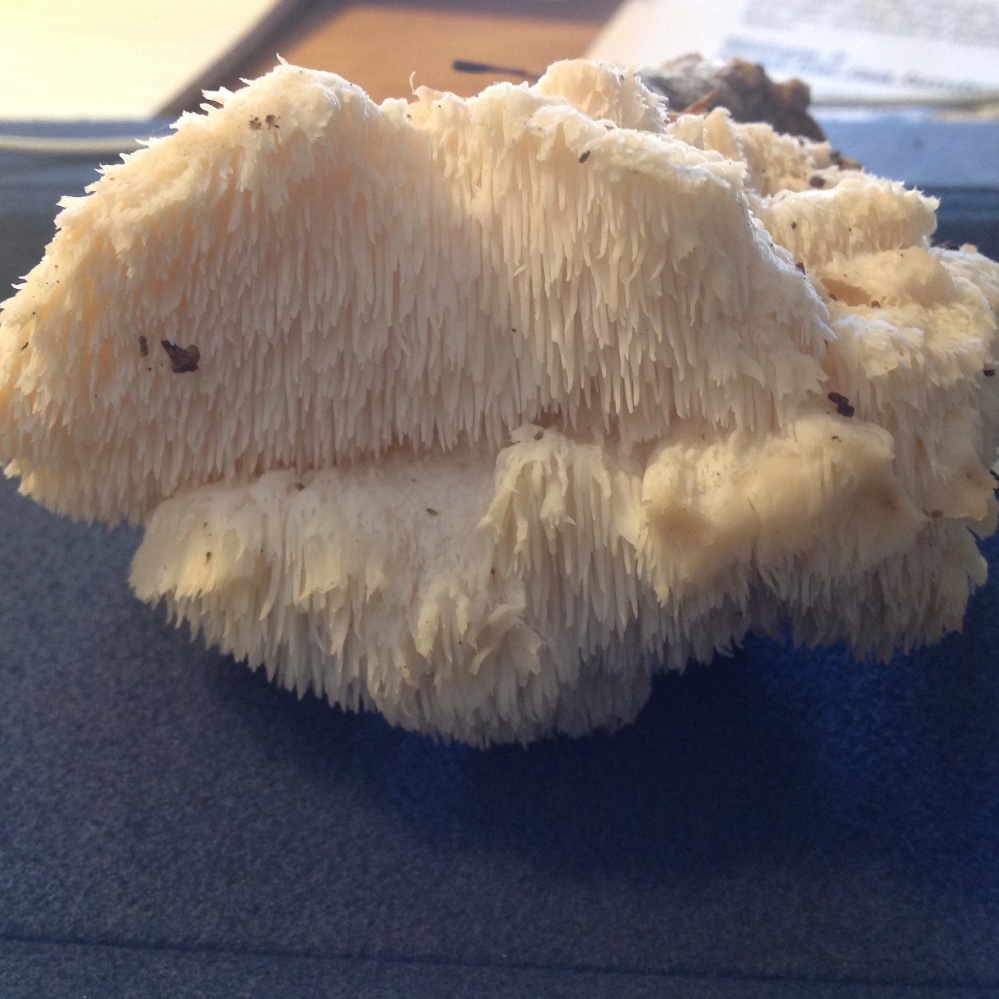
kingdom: Fungi
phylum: Basidiomycota
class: Agaricomycetes
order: Russulales
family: Hericiaceae
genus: Hericium
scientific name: Hericium cirrhatum
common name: børstepigsvamp
